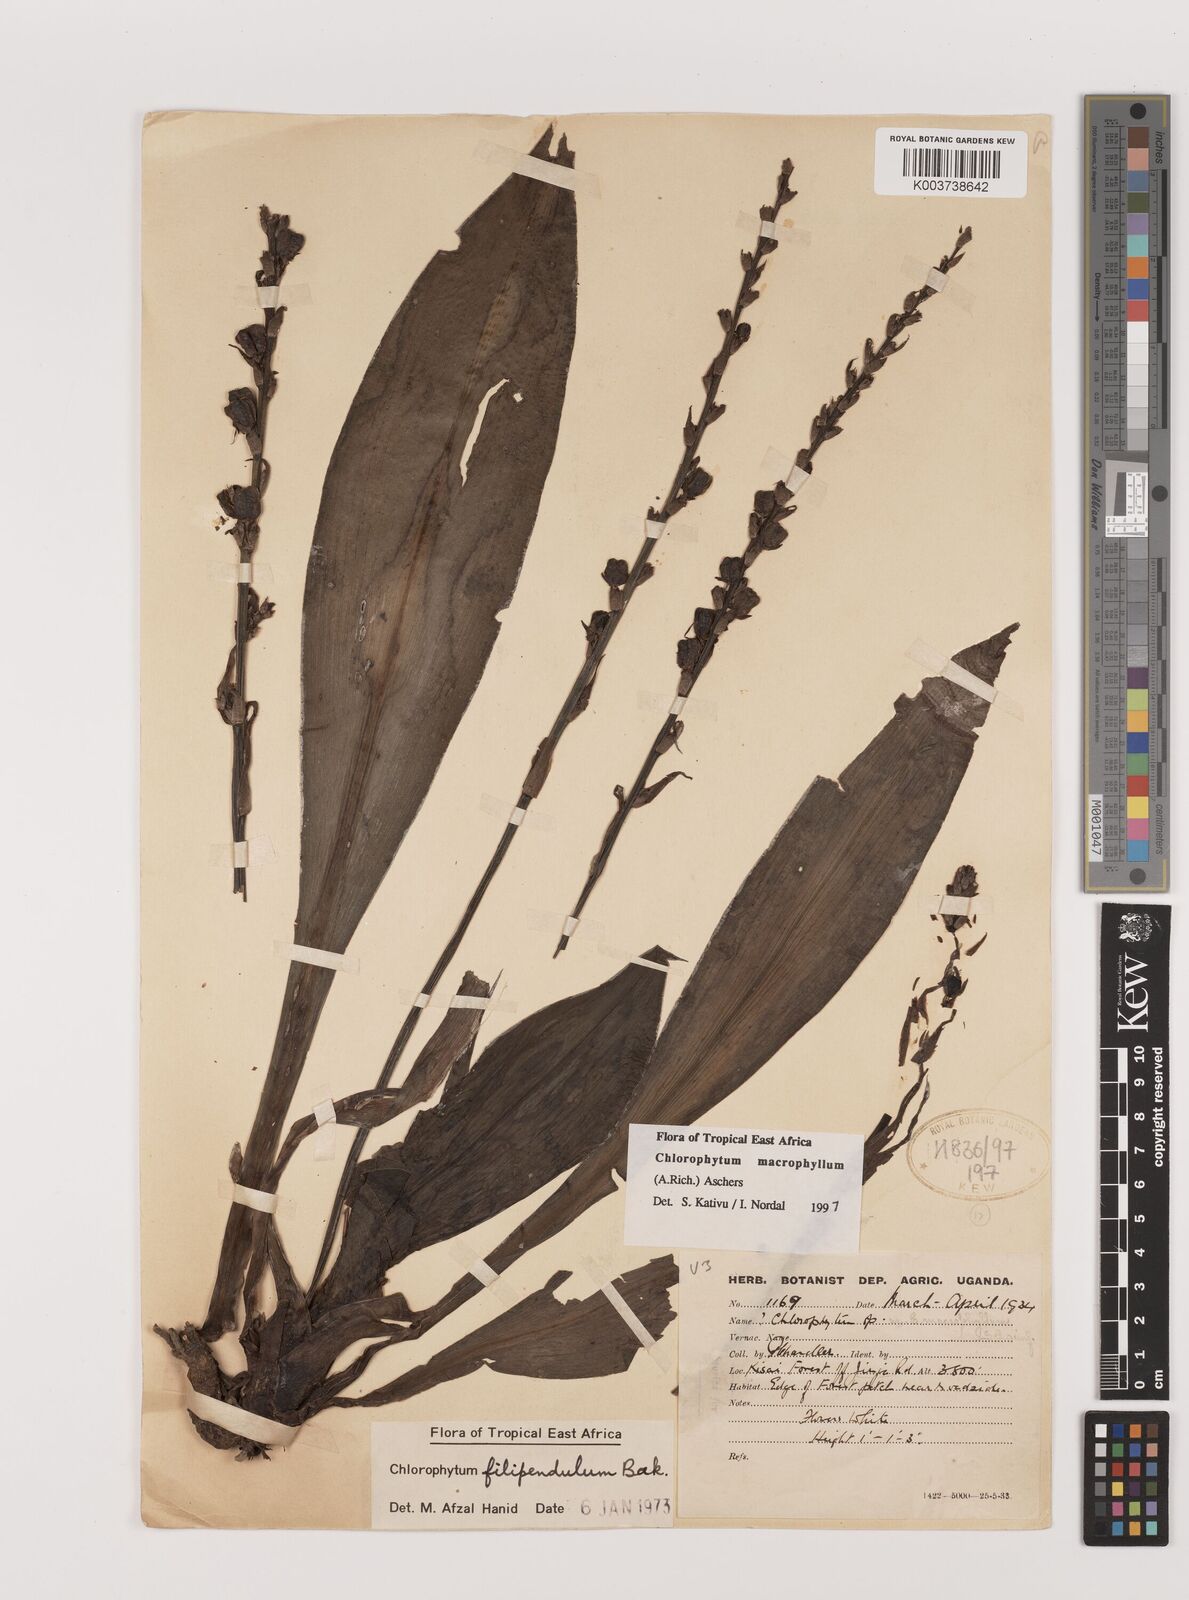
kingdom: Plantae
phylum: Tracheophyta
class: Liliopsida
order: Asparagales
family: Asparagaceae
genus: Chlorophytum
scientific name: Chlorophytum macrophyllum
